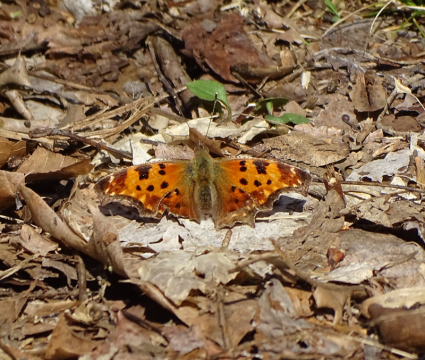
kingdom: Animalia
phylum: Arthropoda
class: Insecta
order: Lepidoptera
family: Nymphalidae
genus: Polygonia
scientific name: Polygonia comma
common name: Eastern Comma
